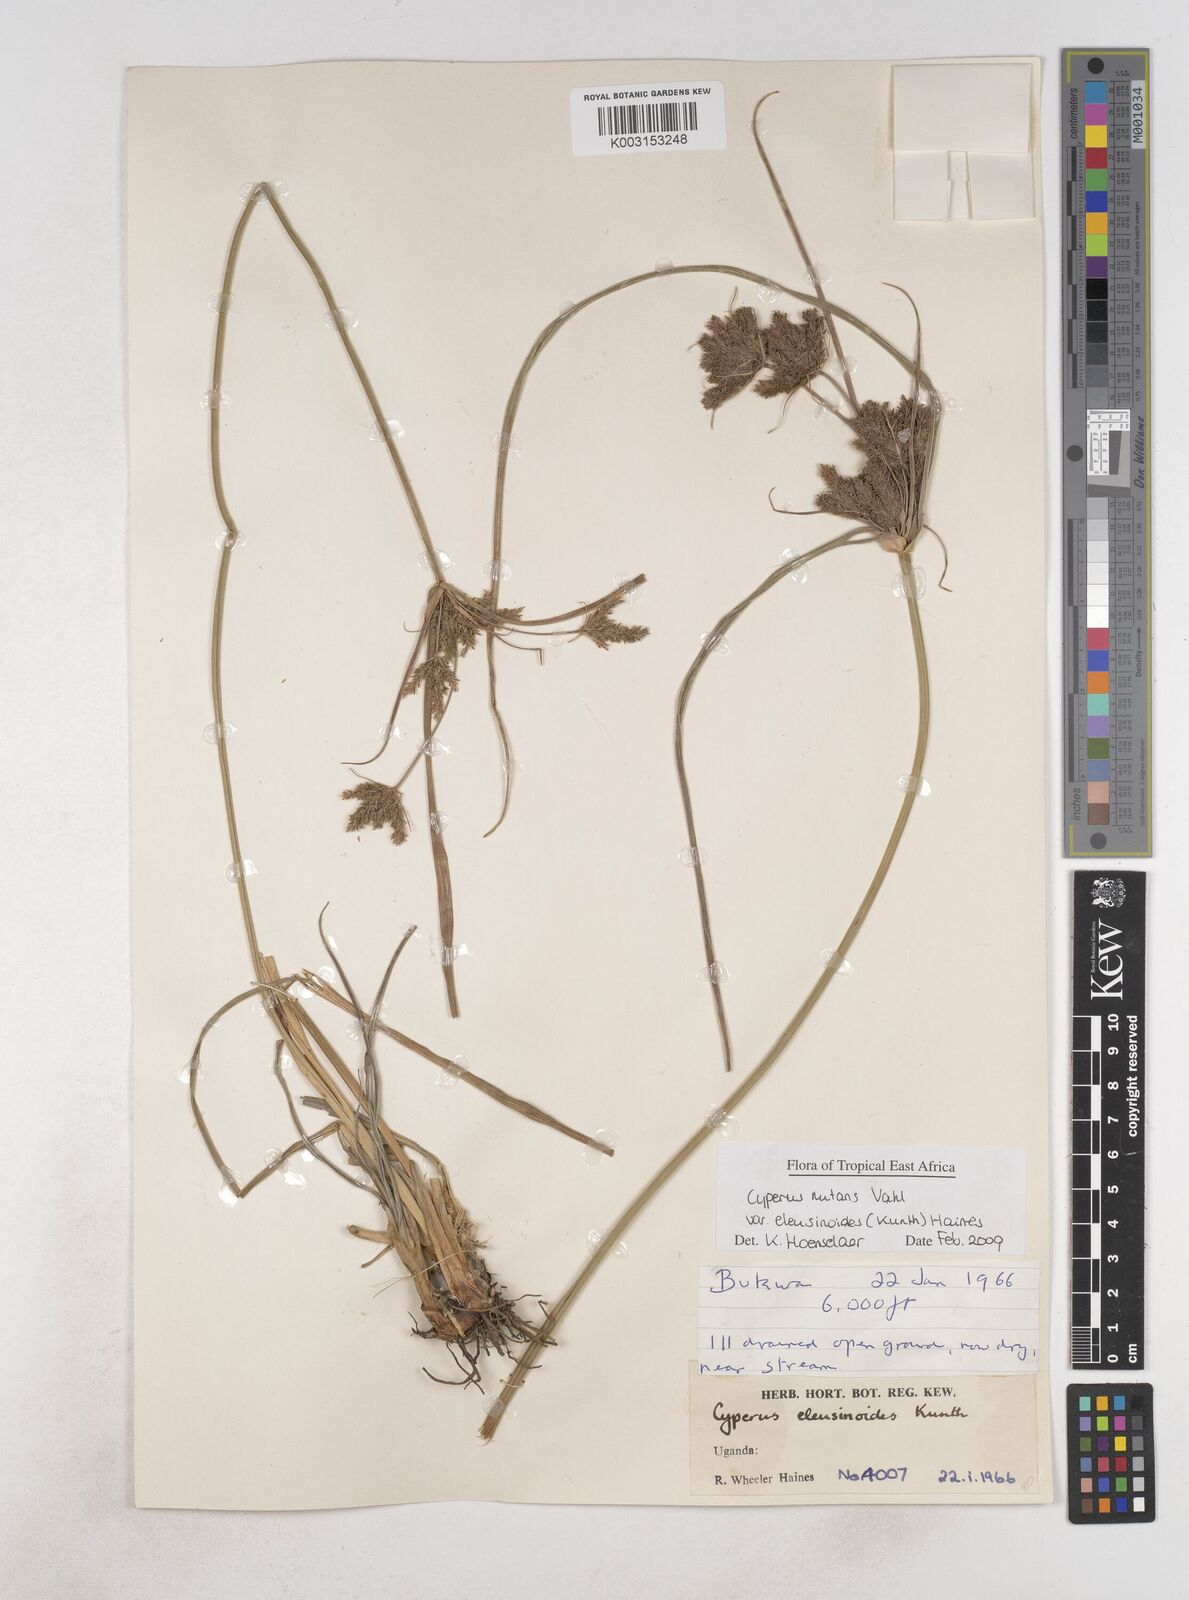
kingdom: Plantae
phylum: Tracheophyta
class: Liliopsida
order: Poales
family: Cyperaceae
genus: Cyperus
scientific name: Cyperus nutans
